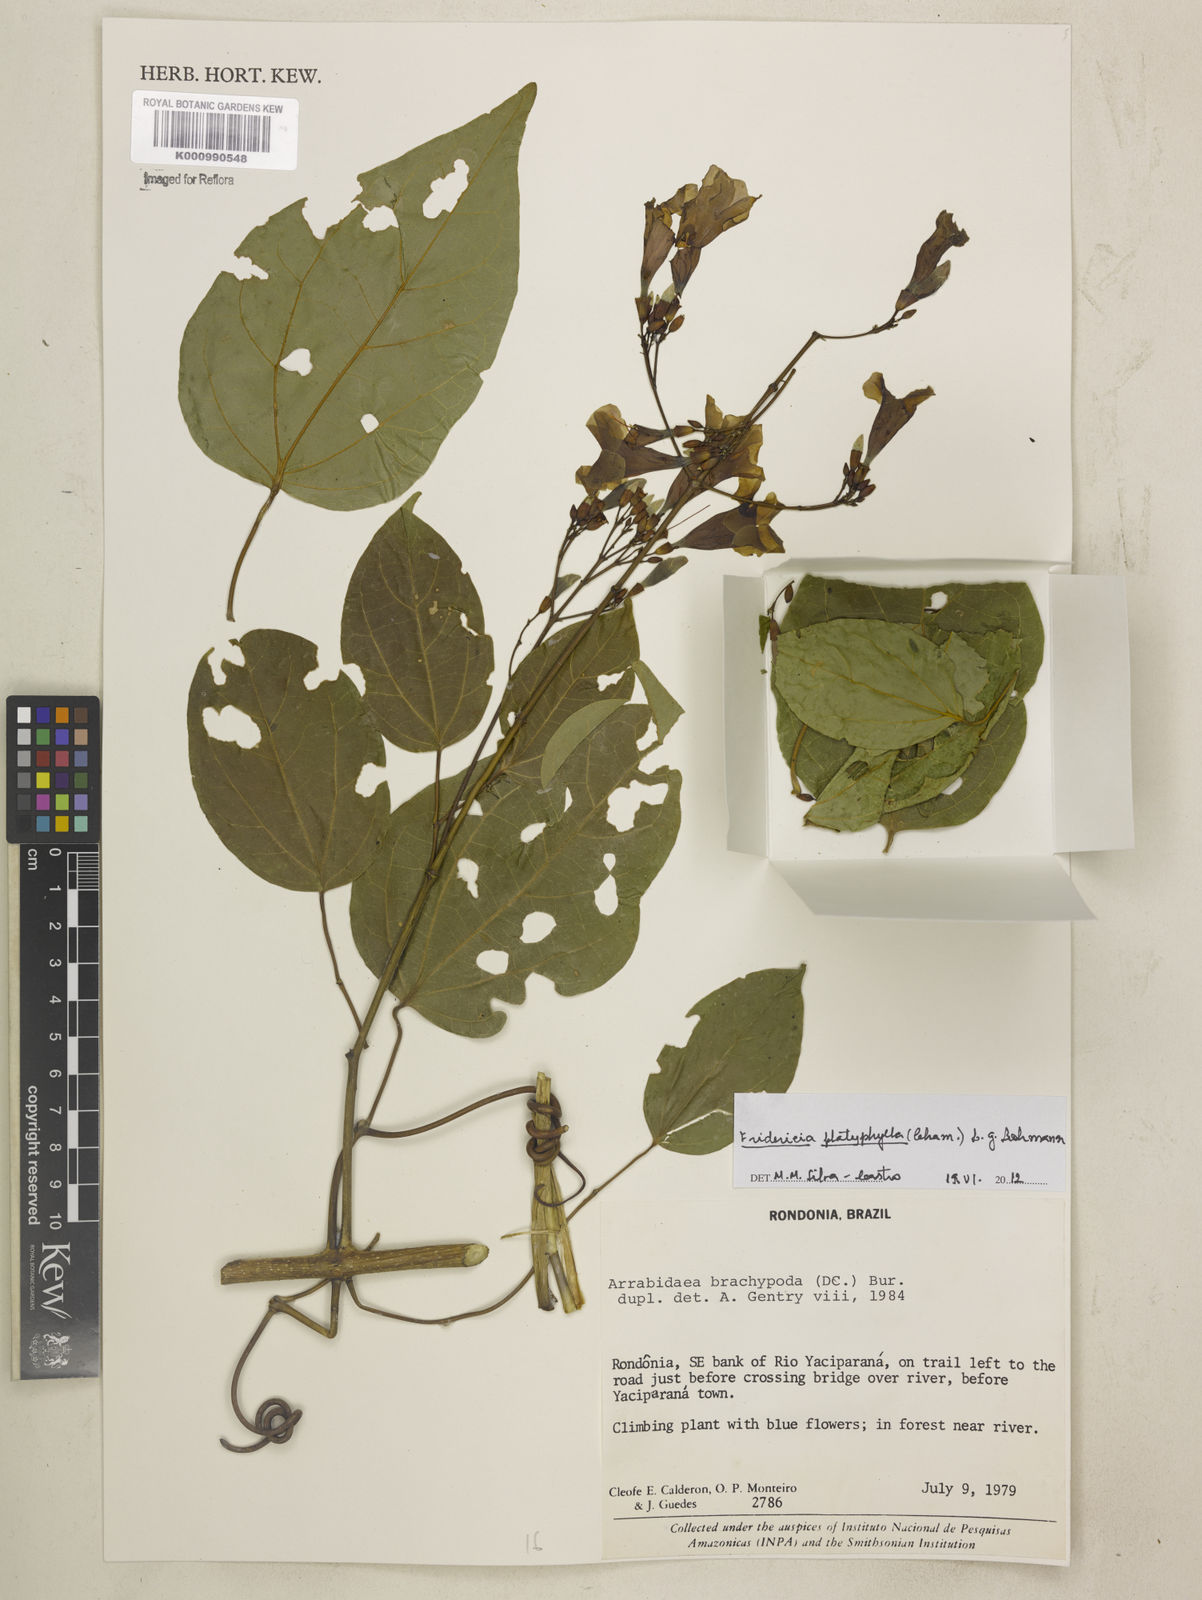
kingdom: Plantae
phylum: Tracheophyta
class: Magnoliopsida
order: Lamiales
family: Bignoniaceae
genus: Fridericia
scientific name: Fridericia platyphylla
